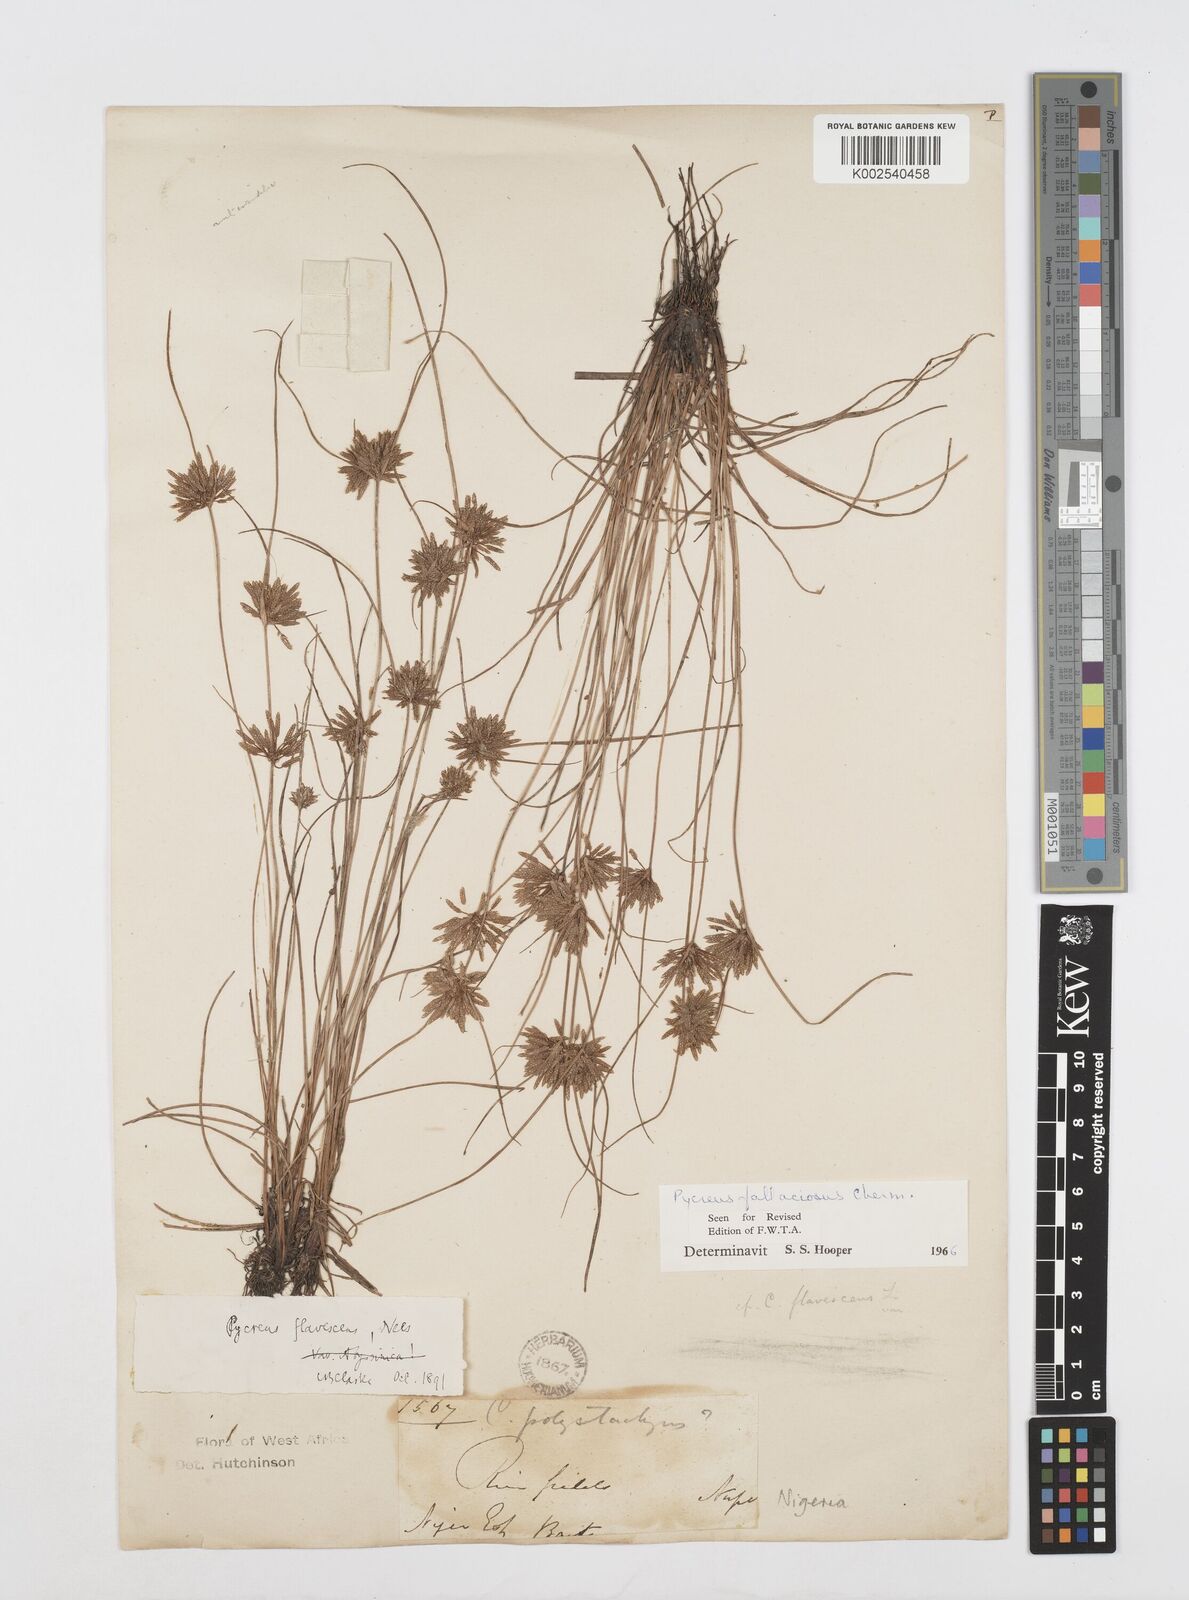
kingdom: Plantae
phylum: Tracheophyta
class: Liliopsida
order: Poales
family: Cyperaceae
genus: Cyperus
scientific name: Cyperus flavescens
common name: Yellow galingale
